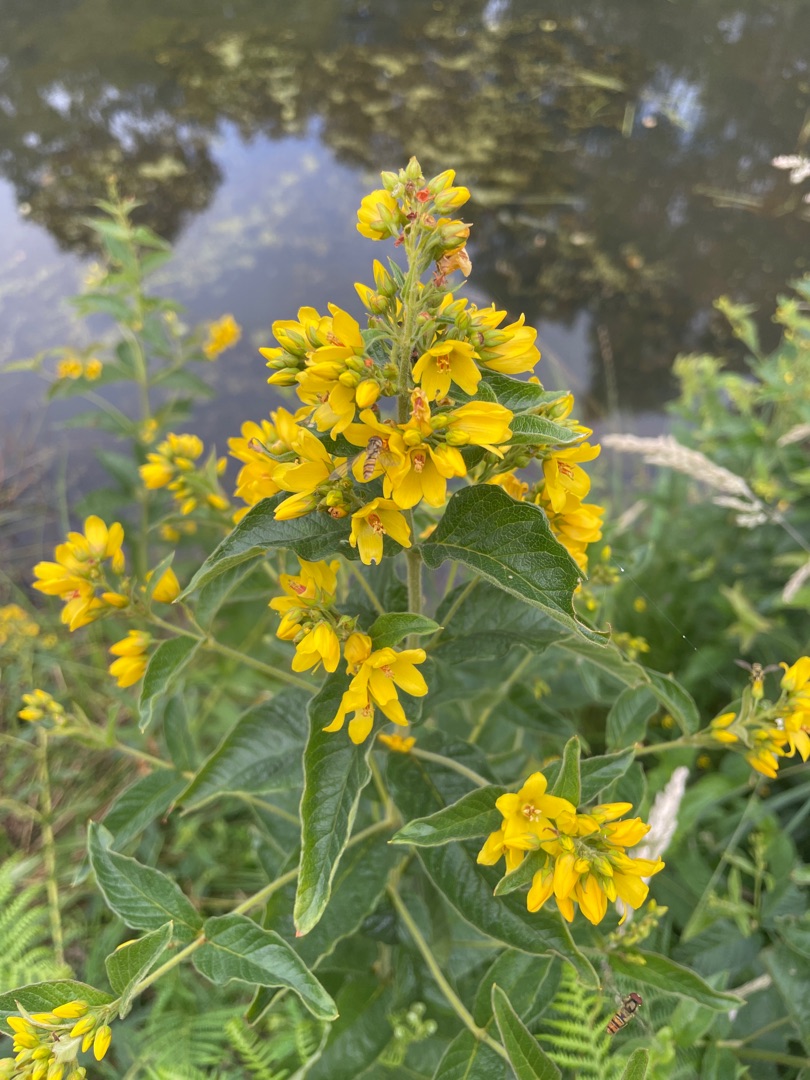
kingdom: Plantae
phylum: Tracheophyta
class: Magnoliopsida
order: Ericales
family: Primulaceae
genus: Lysimachia
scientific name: Lysimachia vulgaris
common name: Almindelig fredløs
